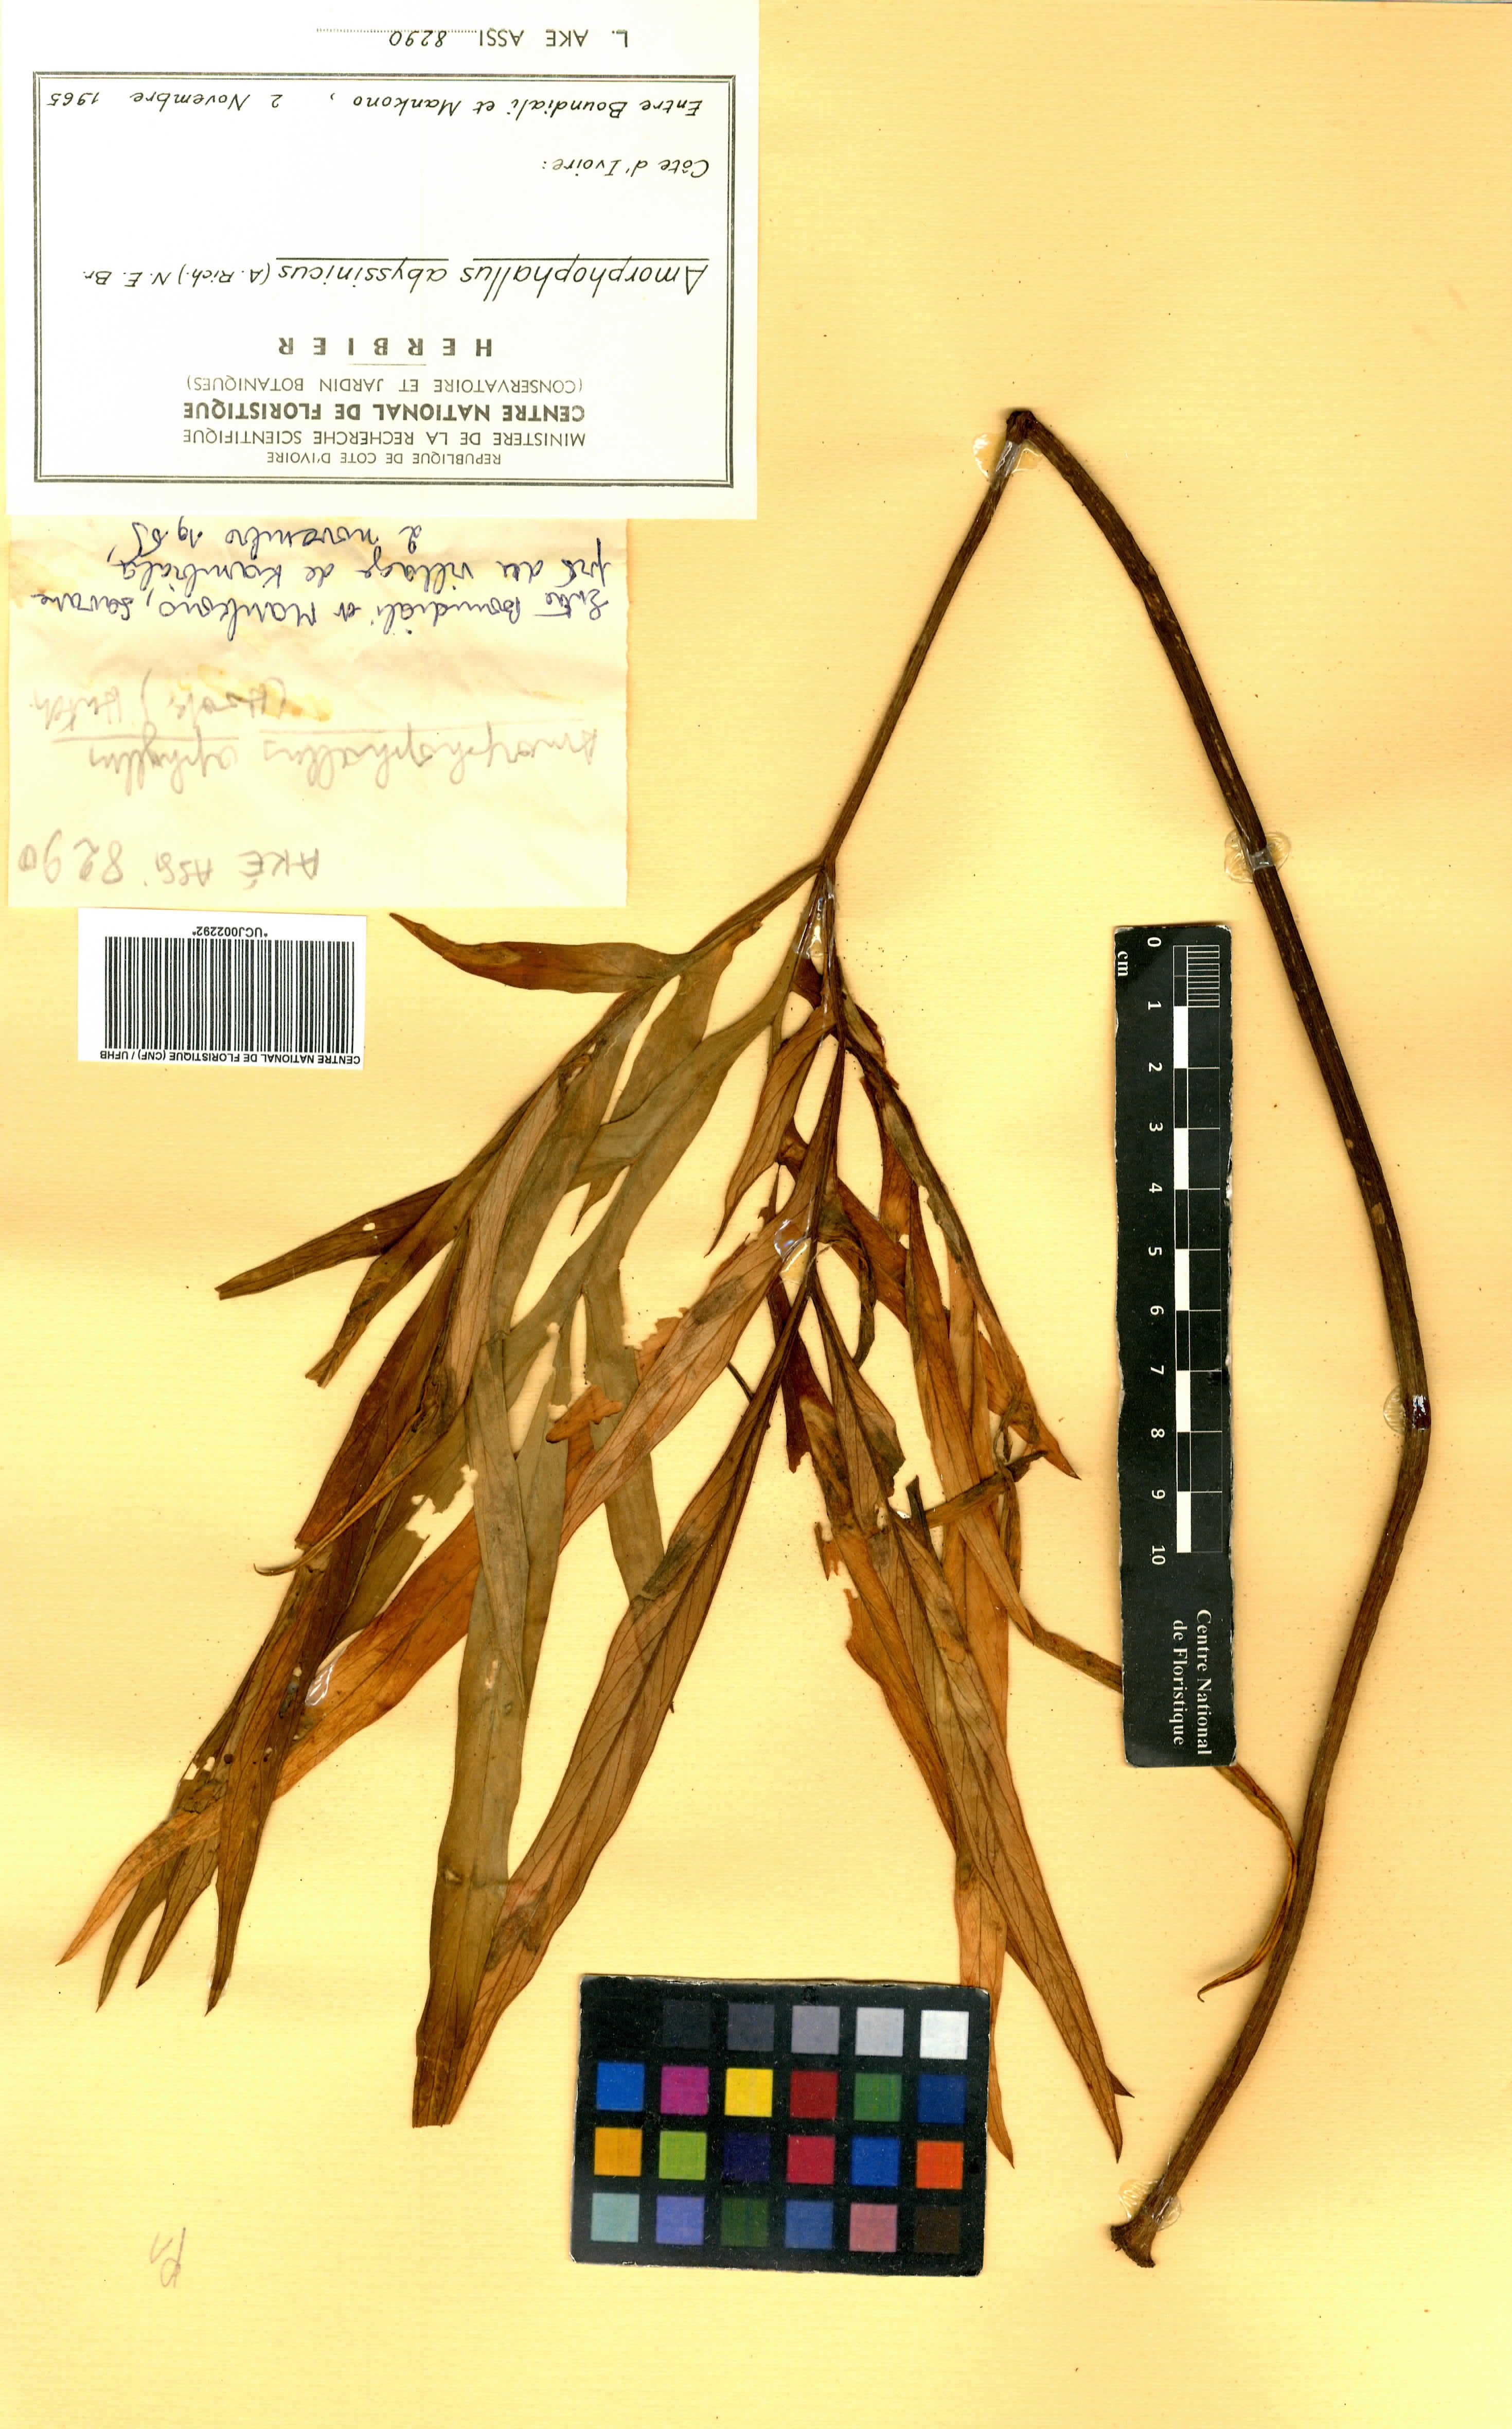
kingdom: Plantae
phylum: Tracheophyta
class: Liliopsida
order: Alismatales
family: Araceae
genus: Amorphophallus
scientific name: Amorphophallus abyssinicus
